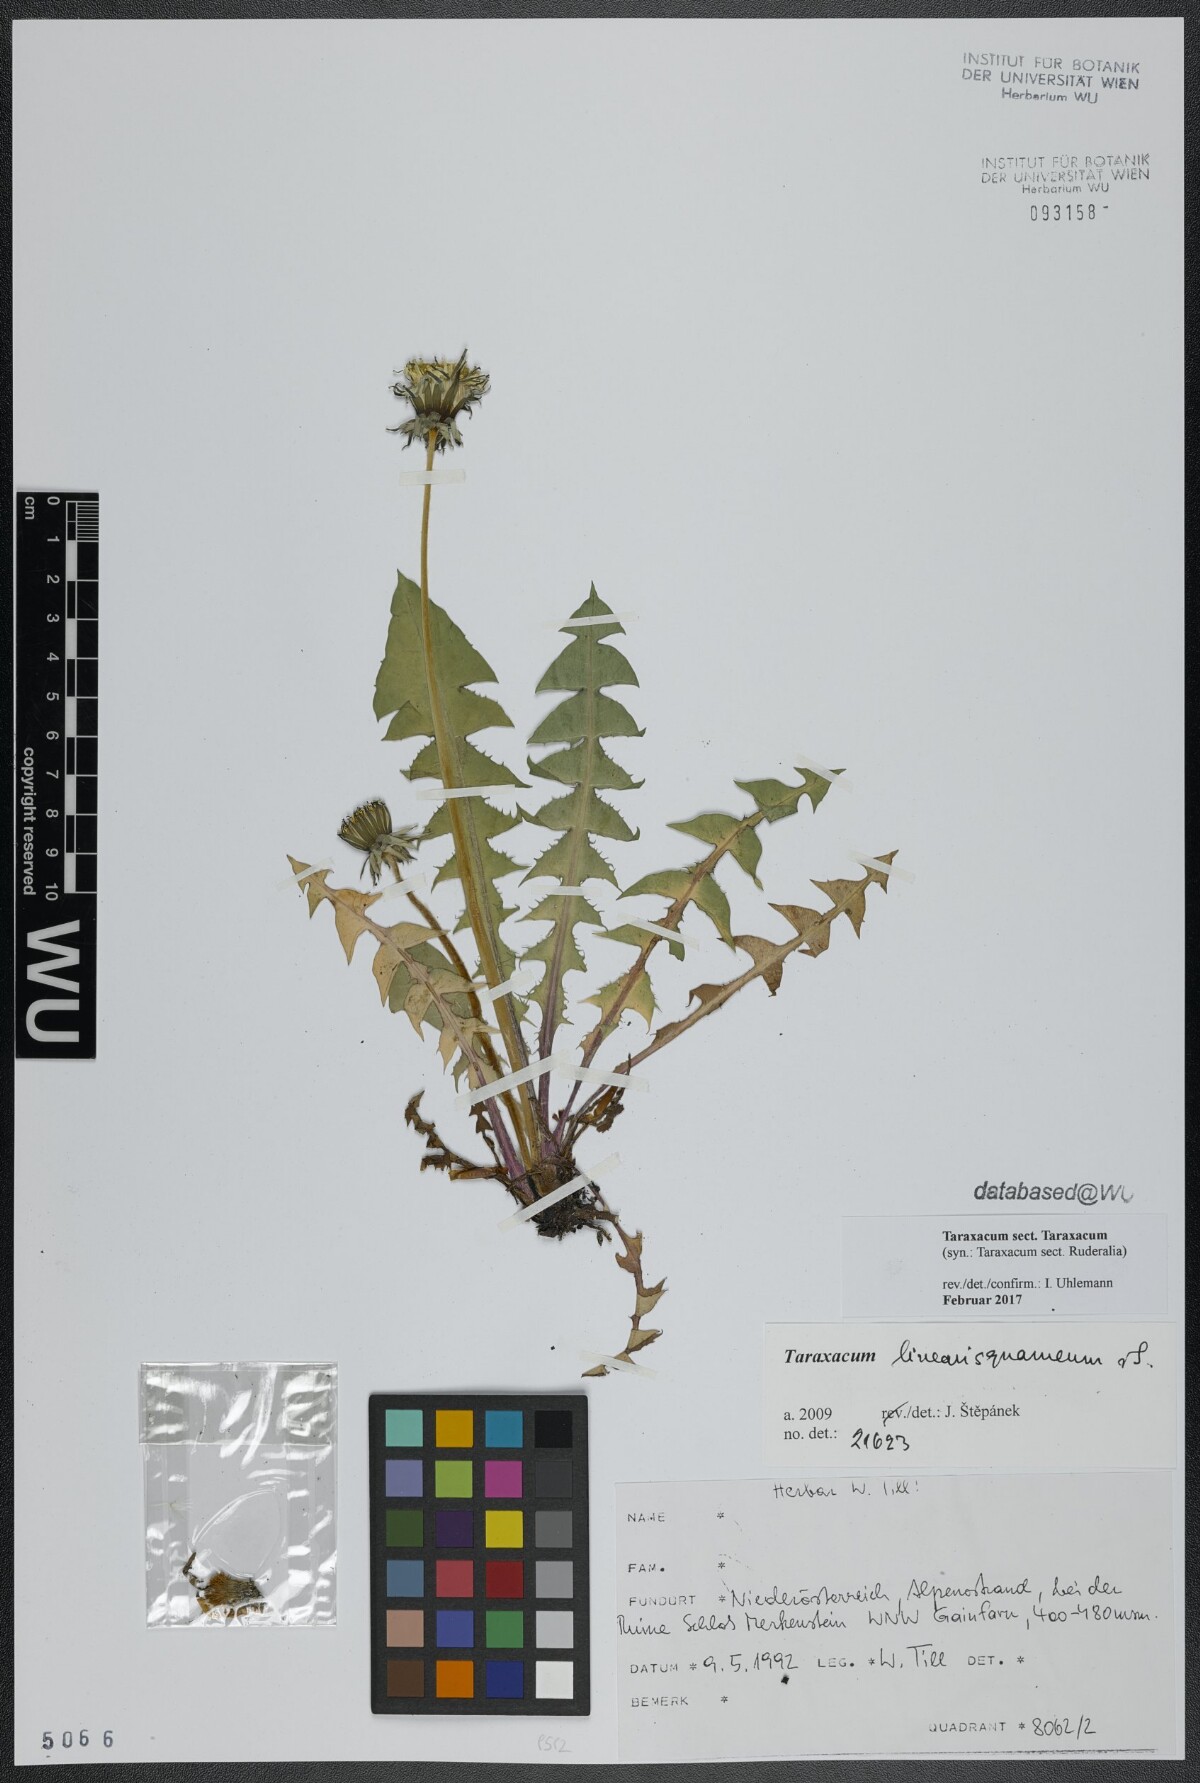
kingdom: Plantae
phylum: Tracheophyta
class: Magnoliopsida
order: Asterales
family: Asteraceae
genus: Taraxacum
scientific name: Taraxacum
